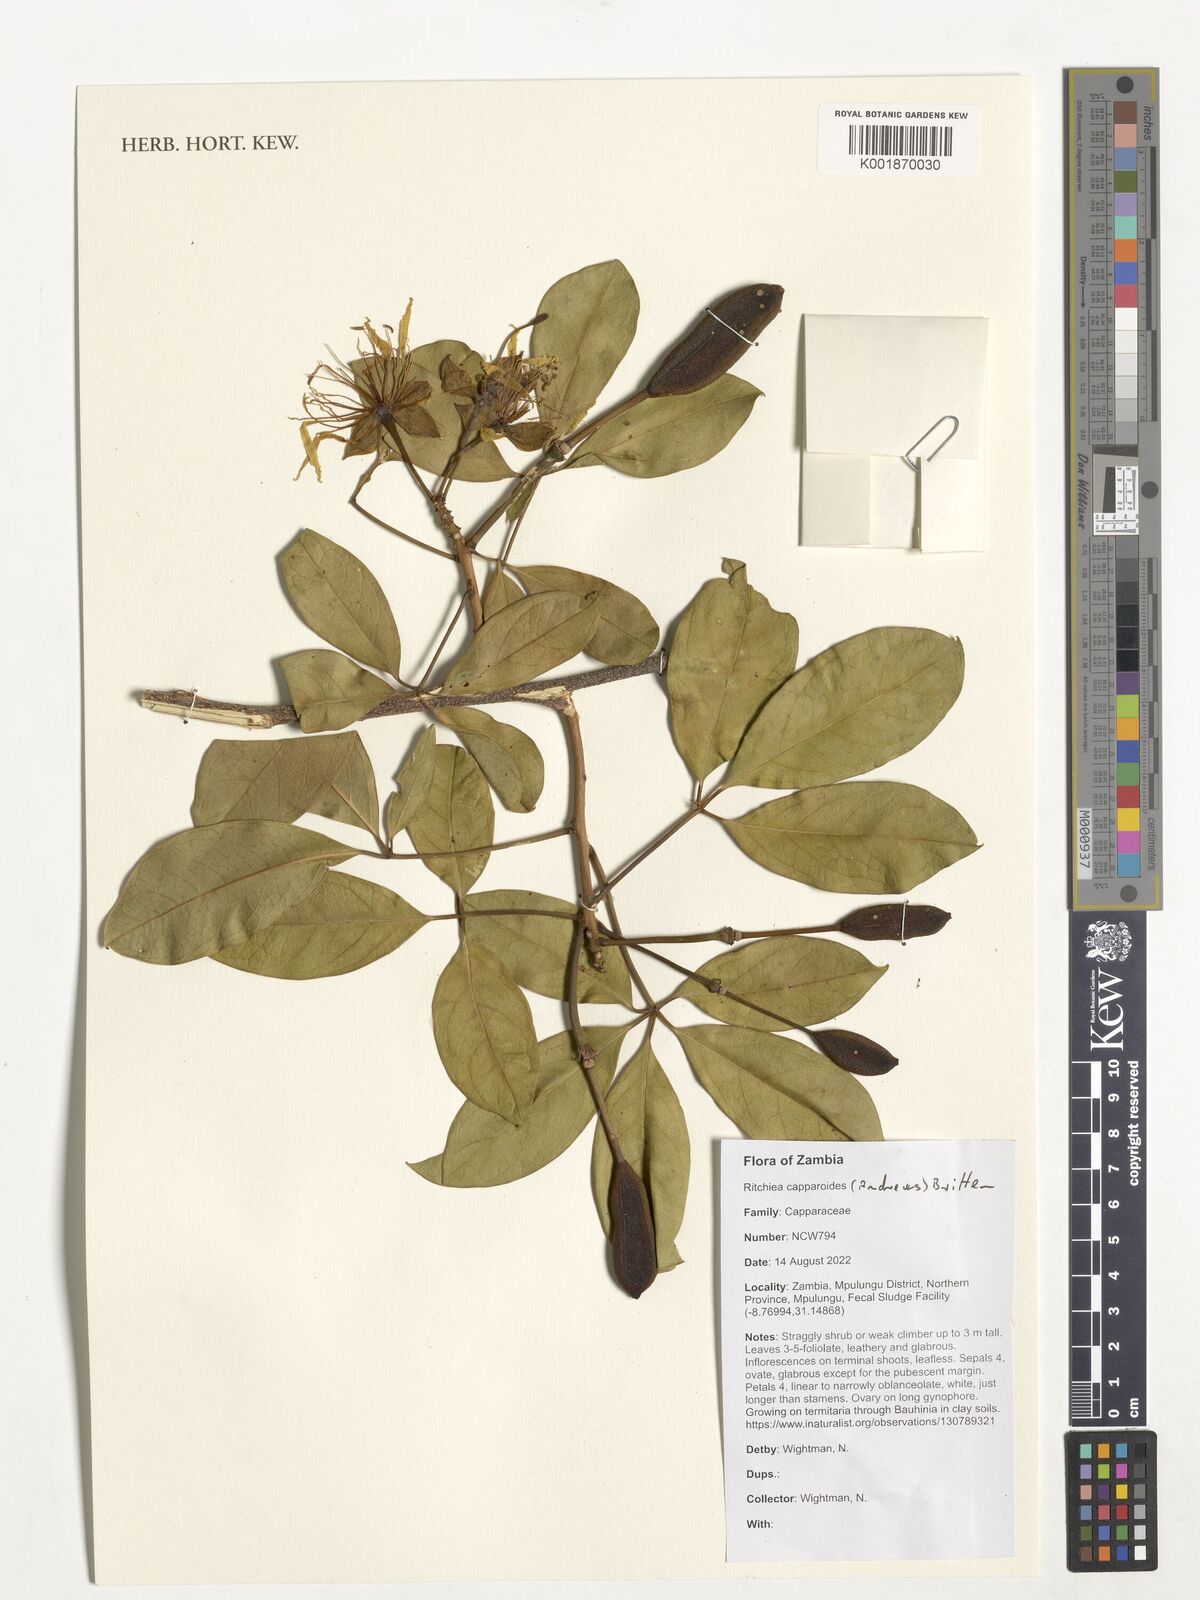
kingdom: Plantae
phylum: Tracheophyta
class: Magnoliopsida
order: Brassicales
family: Capparaceae
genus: Ritchiea
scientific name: Ritchiea capparoides
